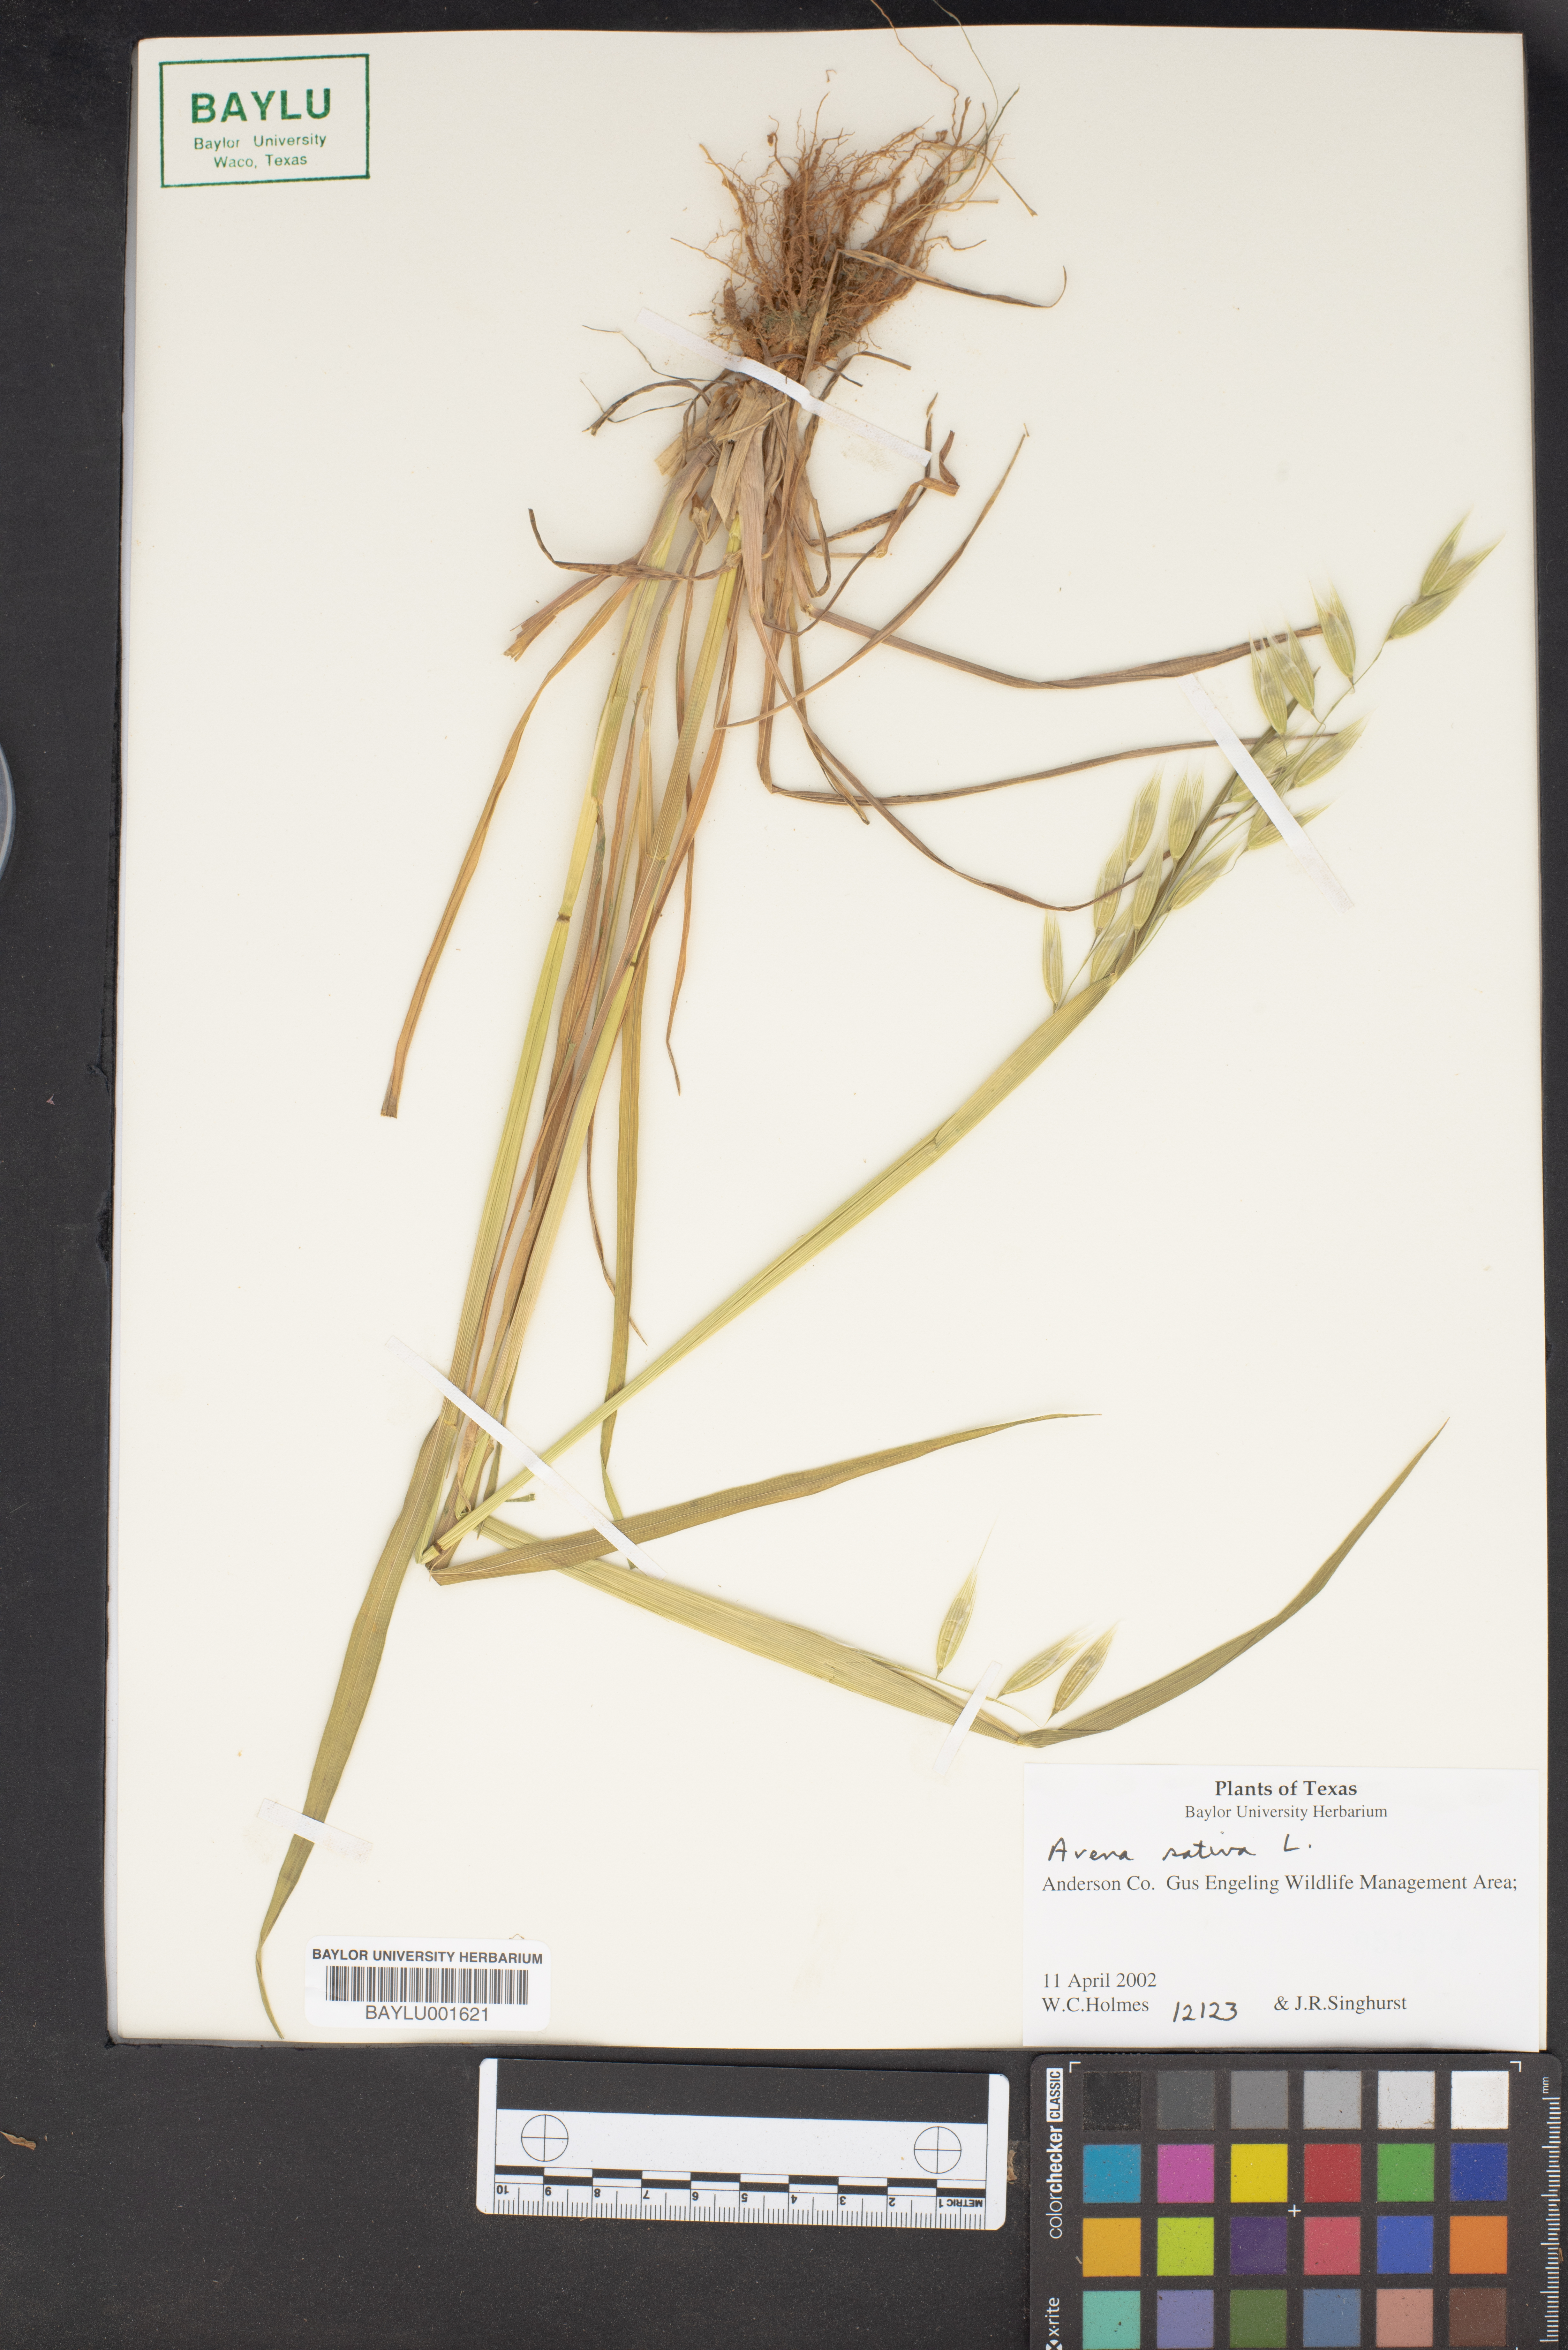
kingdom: Plantae
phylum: Tracheophyta
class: Liliopsida
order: Poales
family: Poaceae
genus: Avena
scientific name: Avena sativa
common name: Oat
